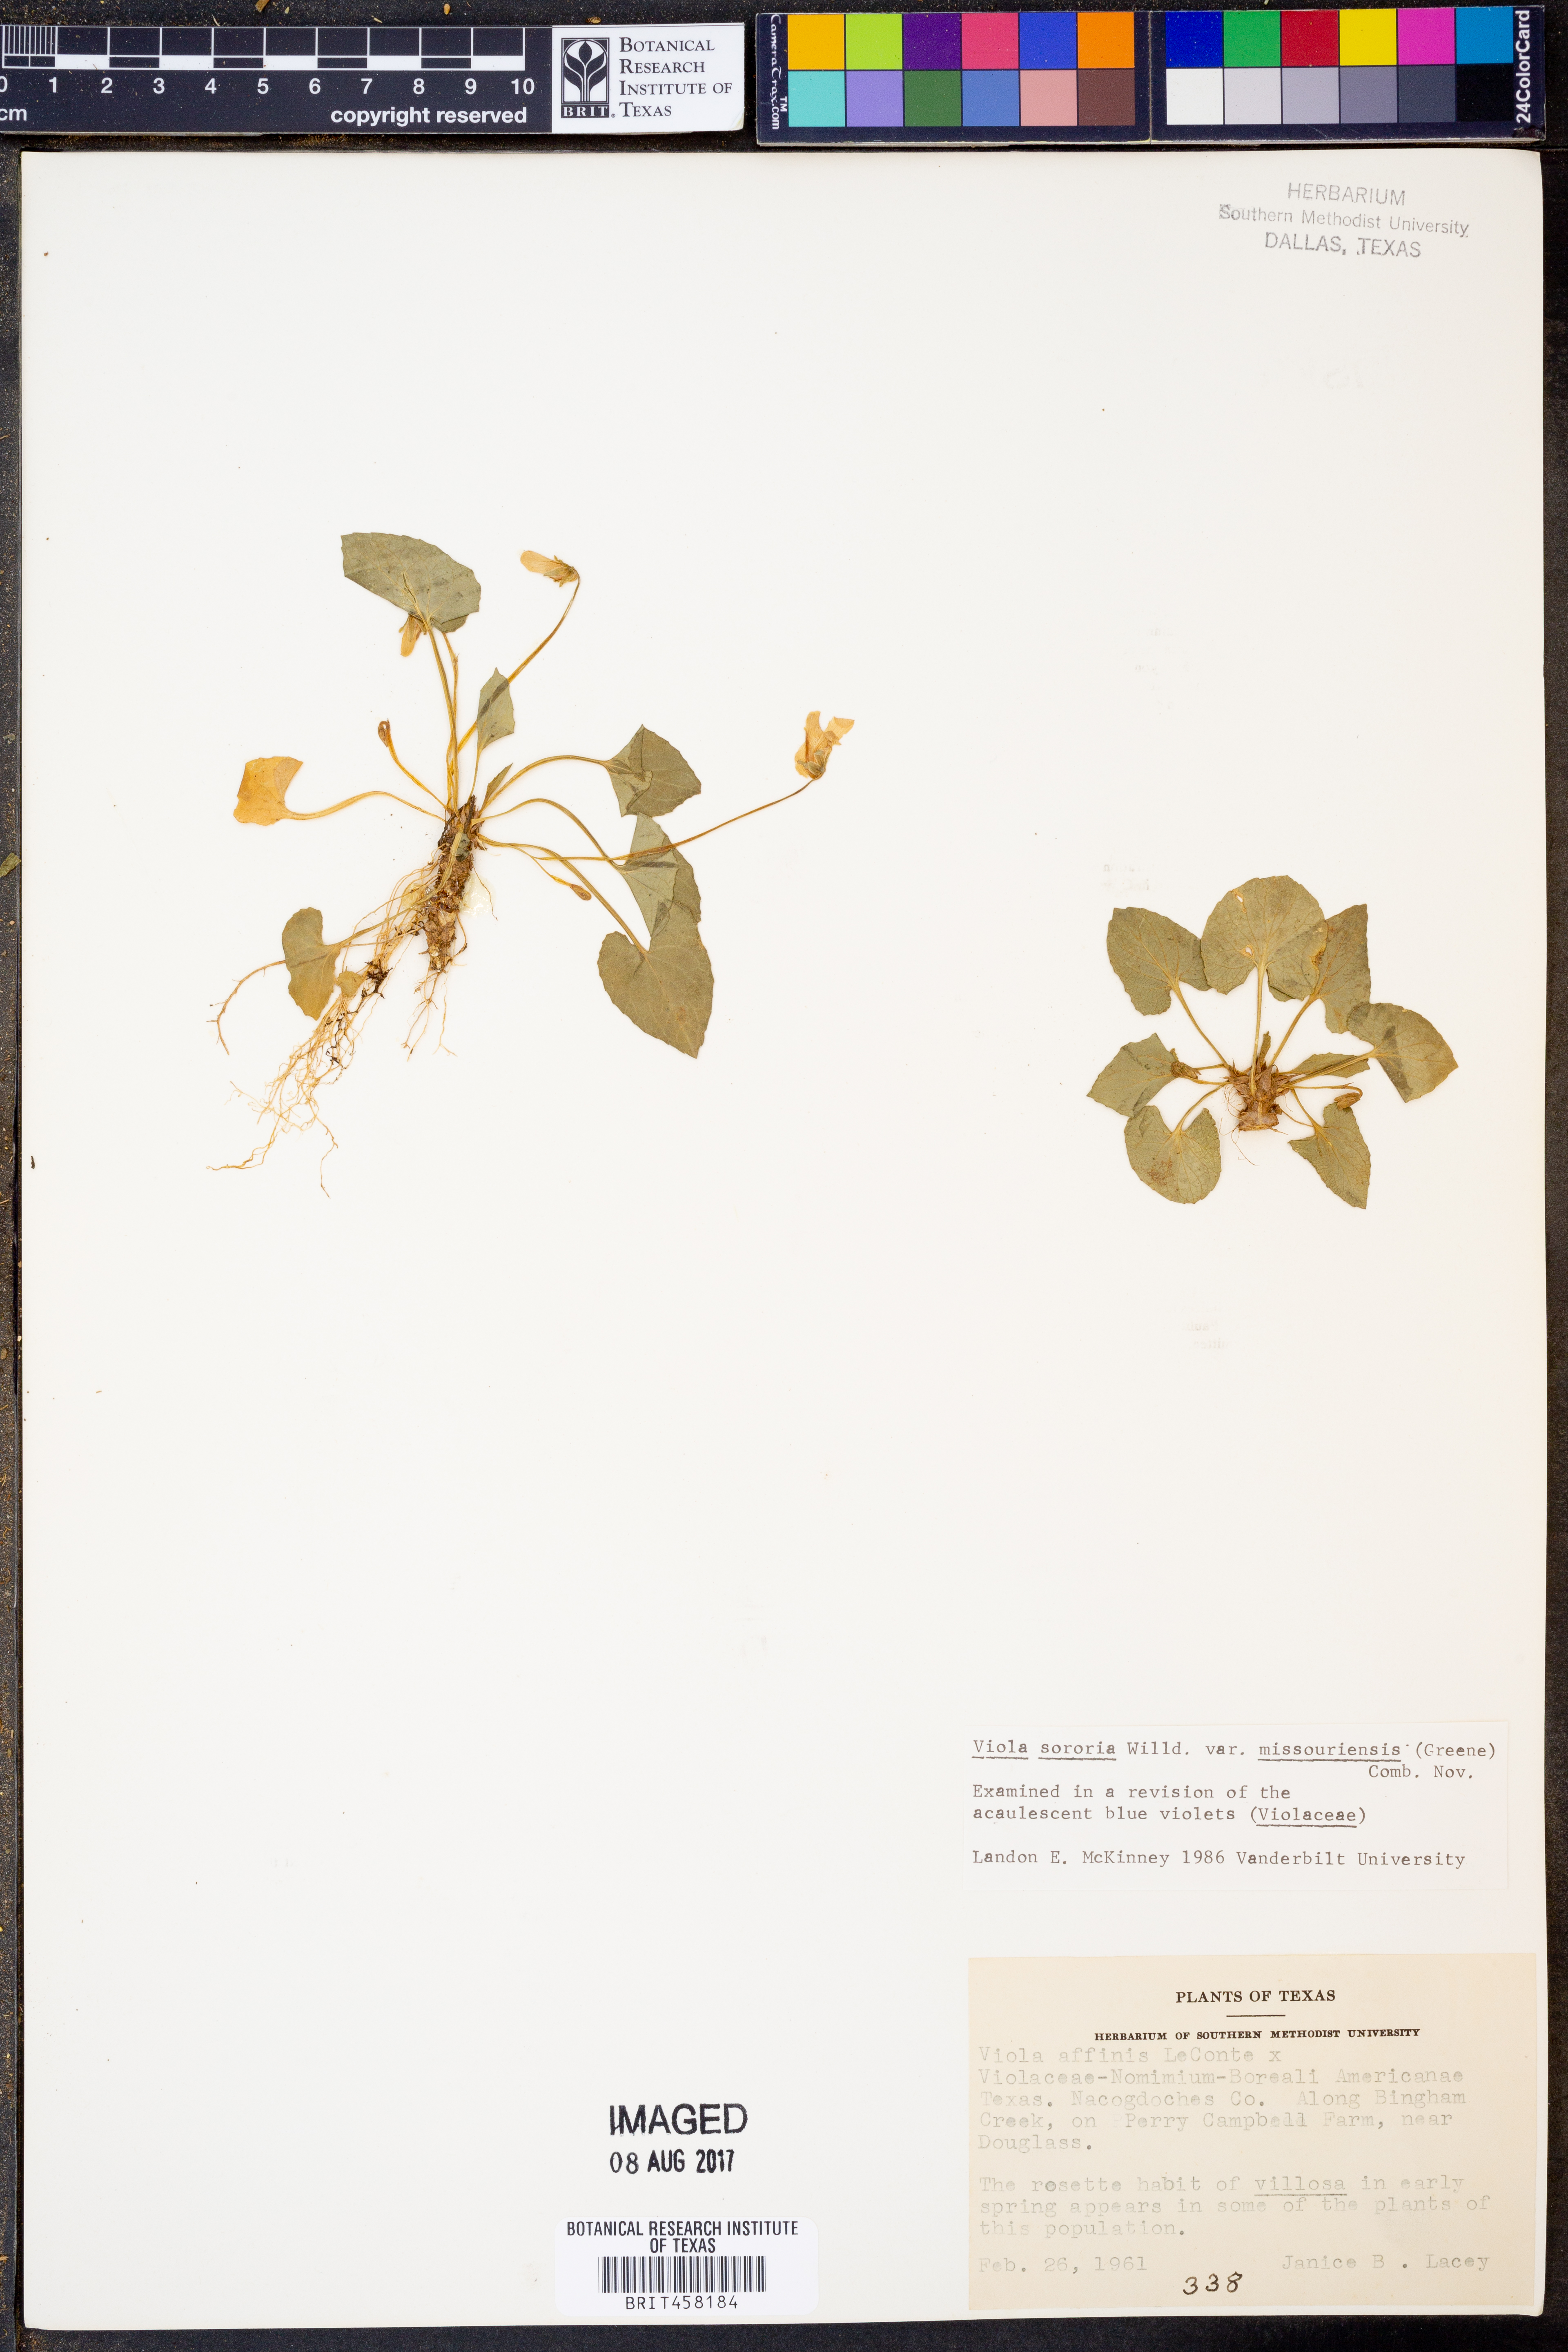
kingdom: Plantae
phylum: Tracheophyta
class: Magnoliopsida
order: Malpighiales
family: Violaceae
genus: Viola
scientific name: Viola missouriensis
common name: Missouri violet
